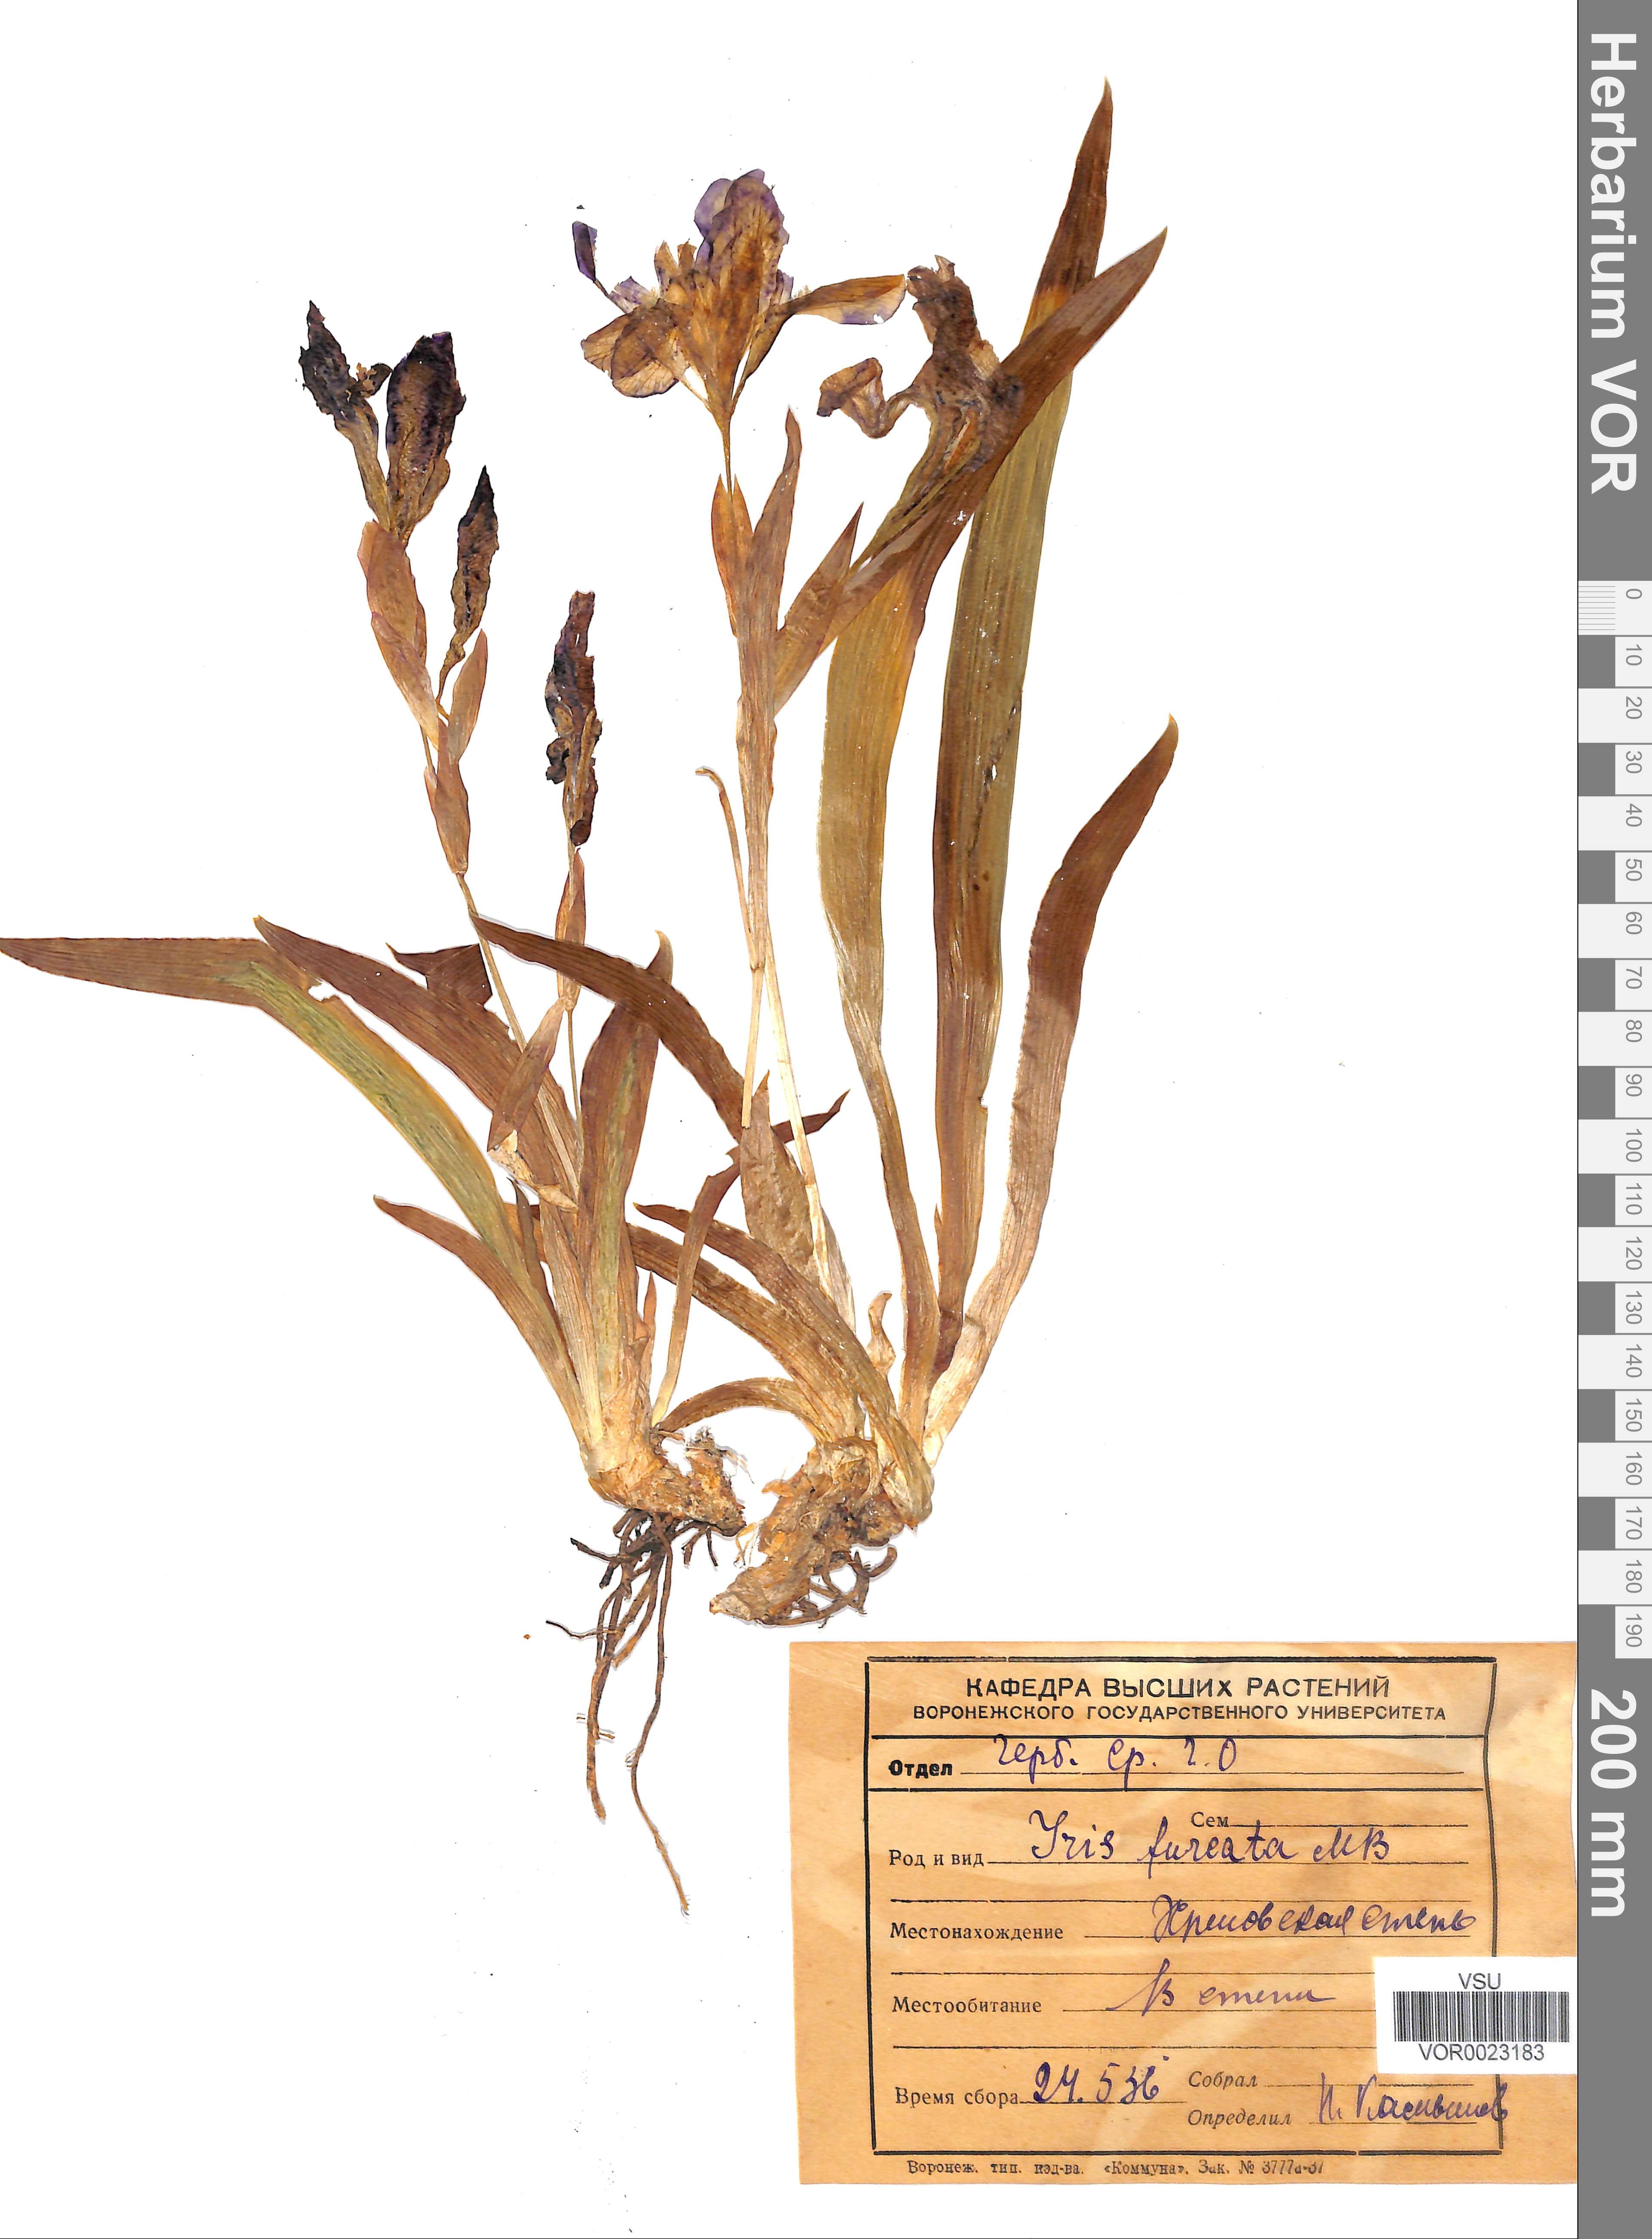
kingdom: Plantae
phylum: Tracheophyta
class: Liliopsida
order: Asparagales
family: Iridaceae
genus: Iris
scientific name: Iris aphylla
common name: Stool iris
